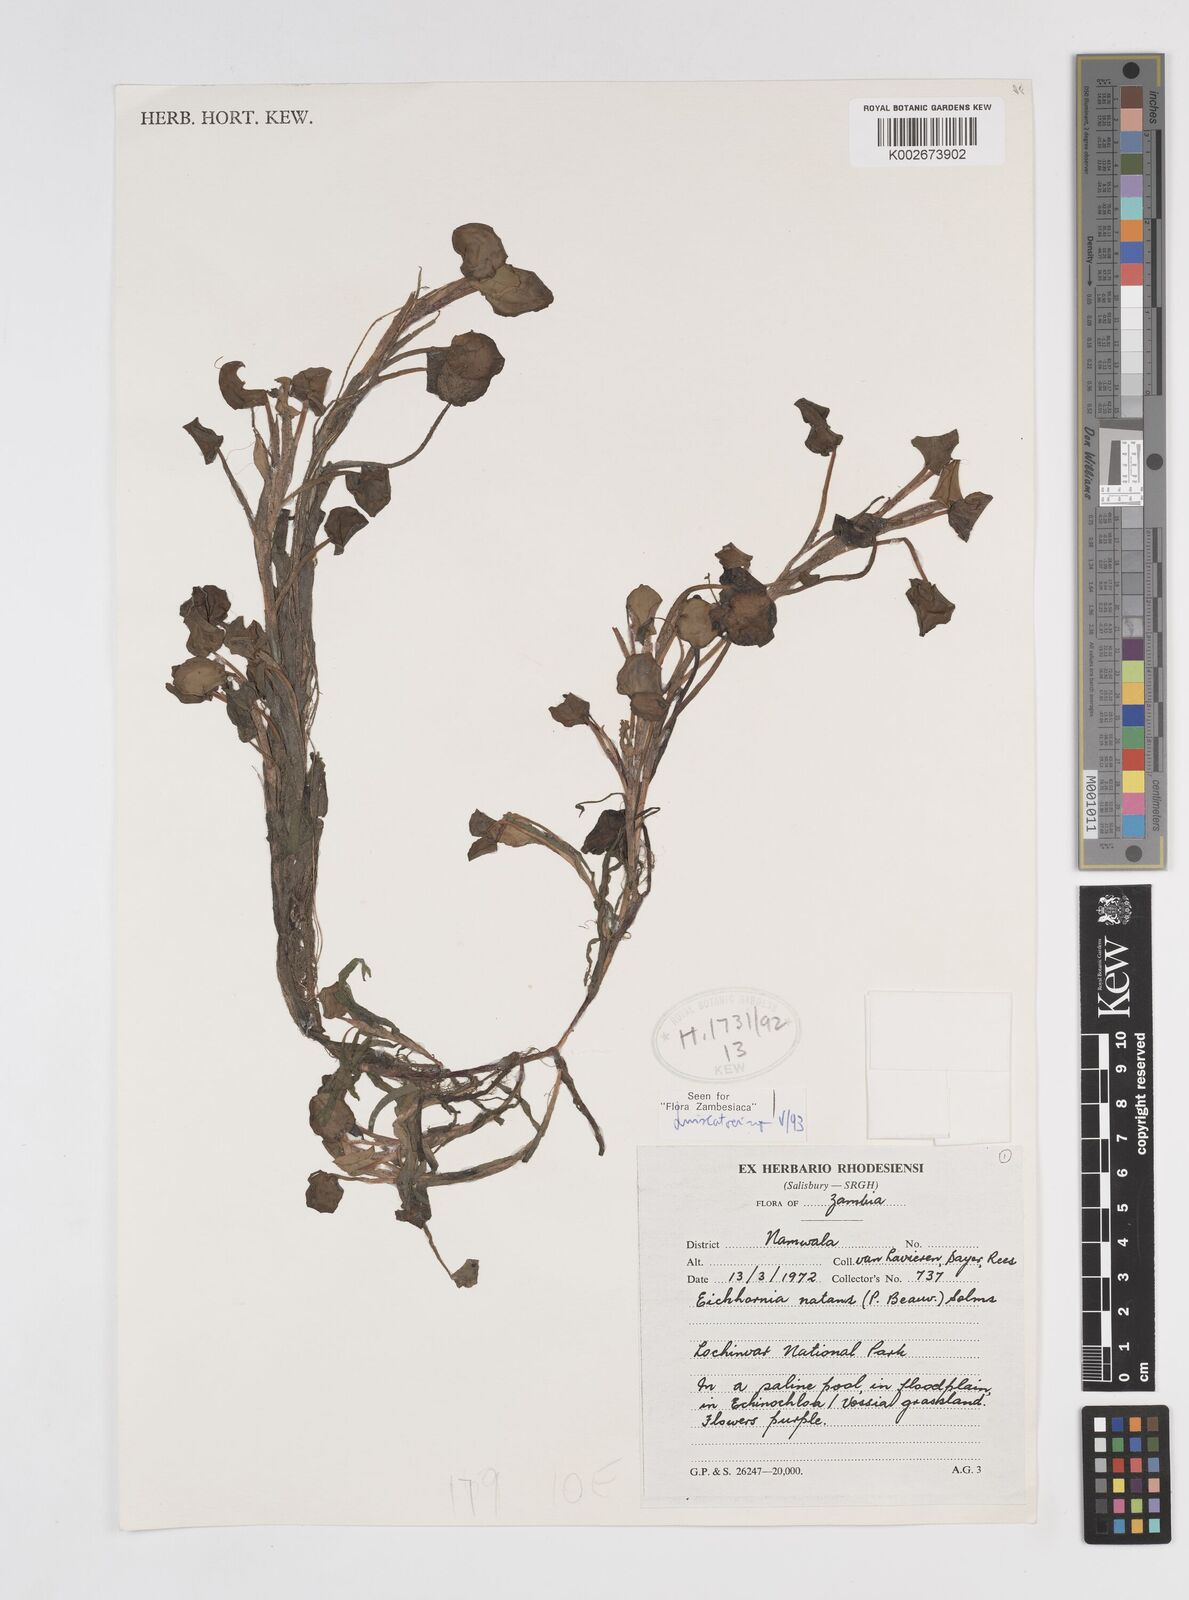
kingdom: Plantae
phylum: Tracheophyta
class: Liliopsida
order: Commelinales
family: Pontederiaceae
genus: Pontederia
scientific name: Pontederia diversifolia
